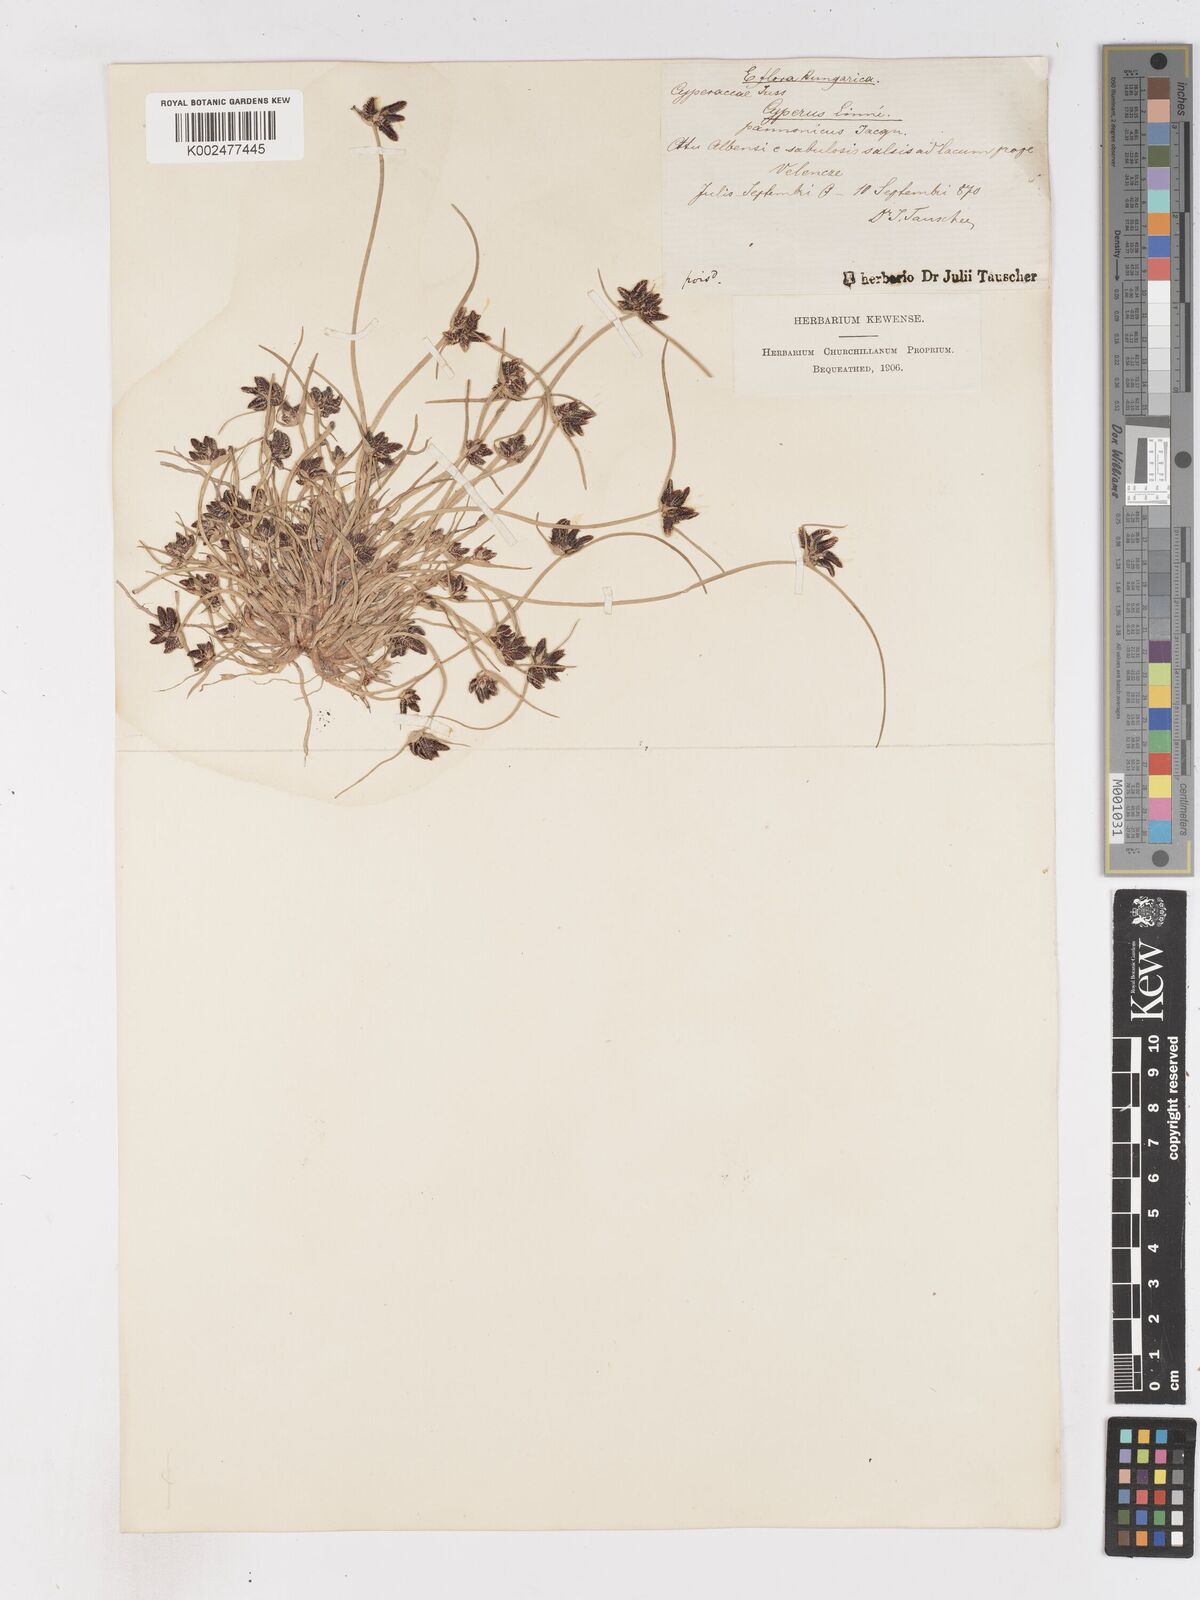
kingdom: Plantae
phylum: Tracheophyta
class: Liliopsida
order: Poales
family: Cyperaceae
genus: Cyperus
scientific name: Cyperus pannonicus
